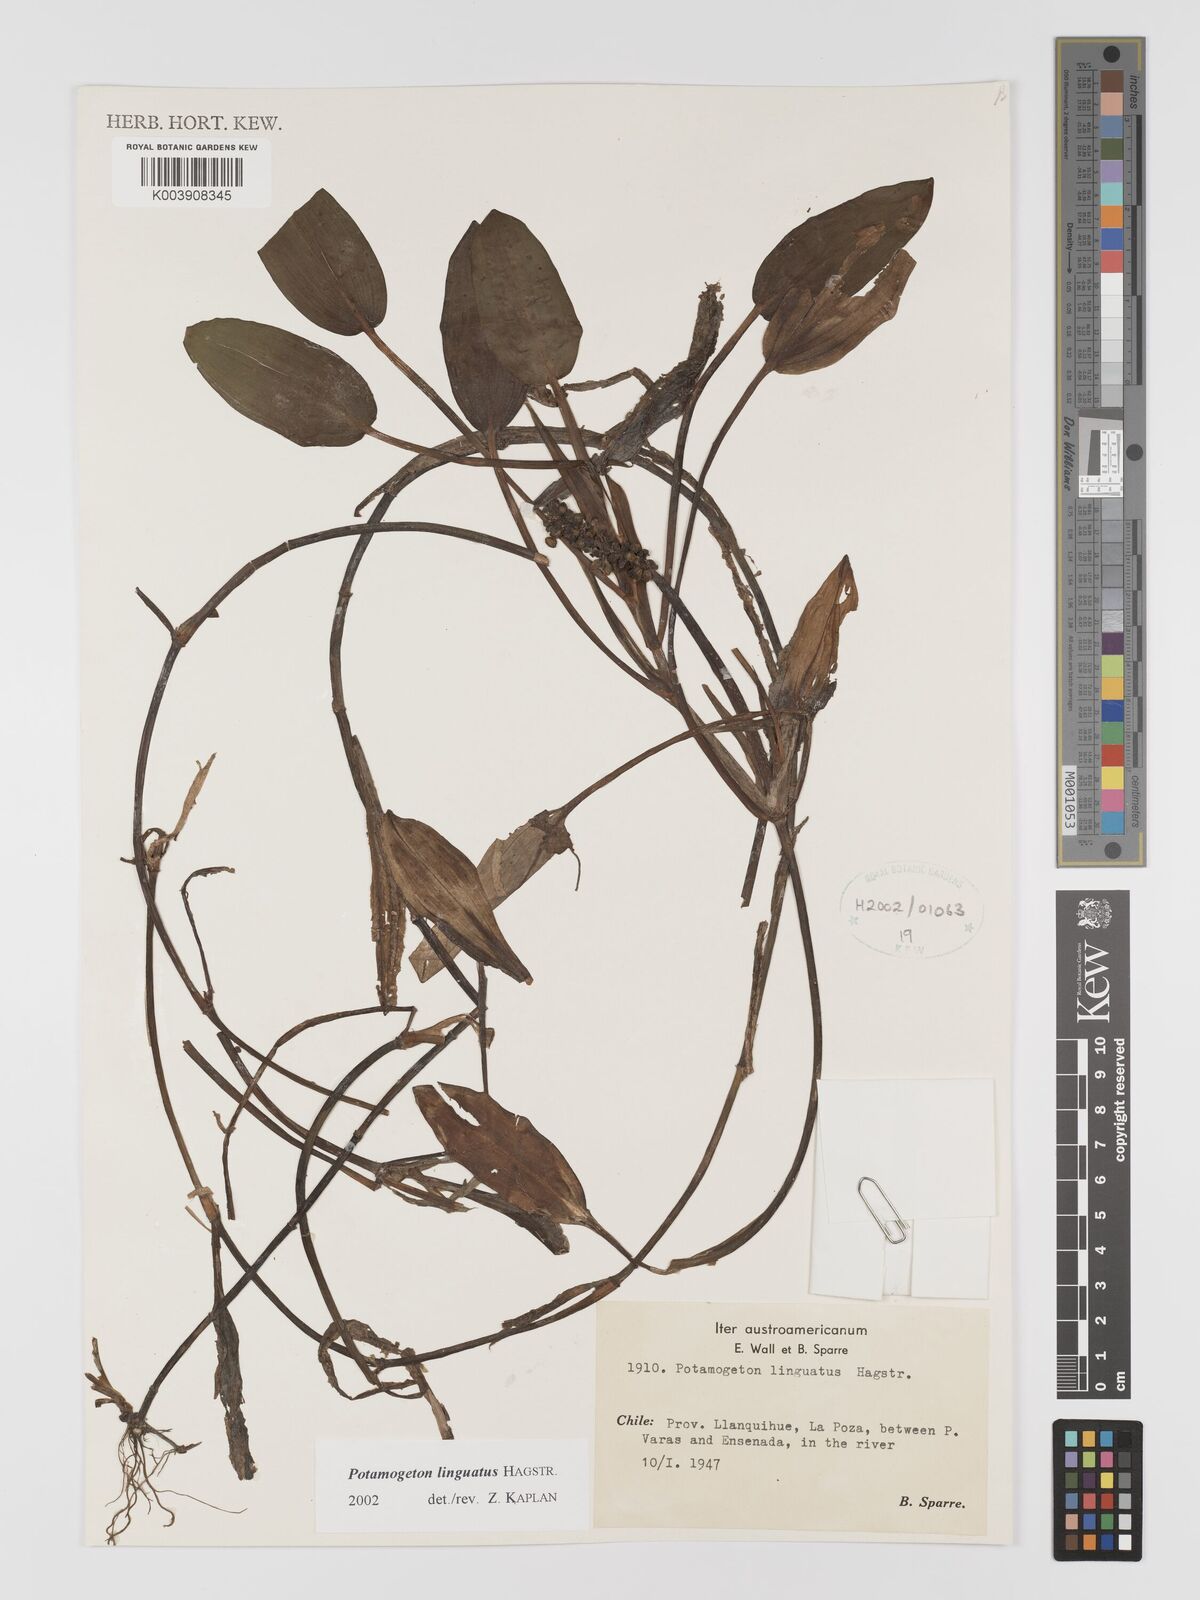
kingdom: Plantae
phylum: Tracheophyta
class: Liliopsida
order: Alismatales
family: Potamogetonaceae
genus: Potamogeton
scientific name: Potamogeton linguatus
